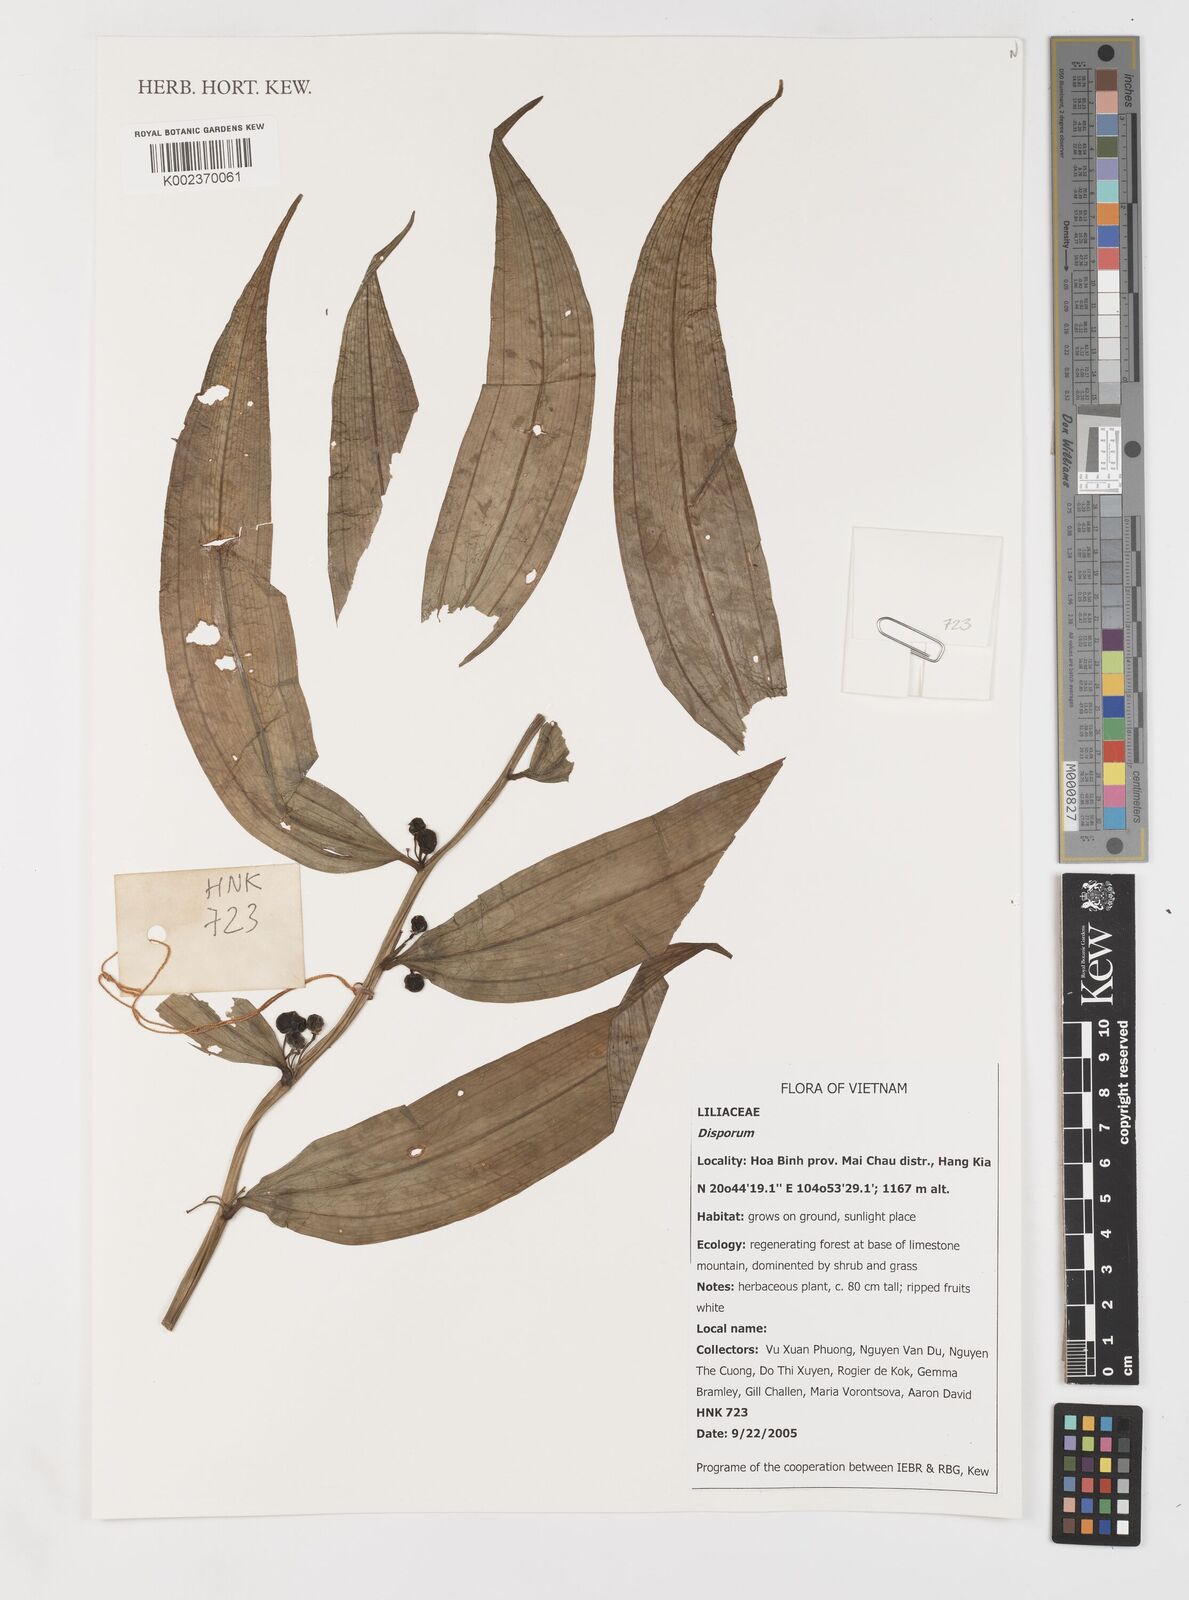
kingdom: Plantae
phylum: Tracheophyta
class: Liliopsida
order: Liliales
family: Colchicaceae
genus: Disporum
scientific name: Disporum
